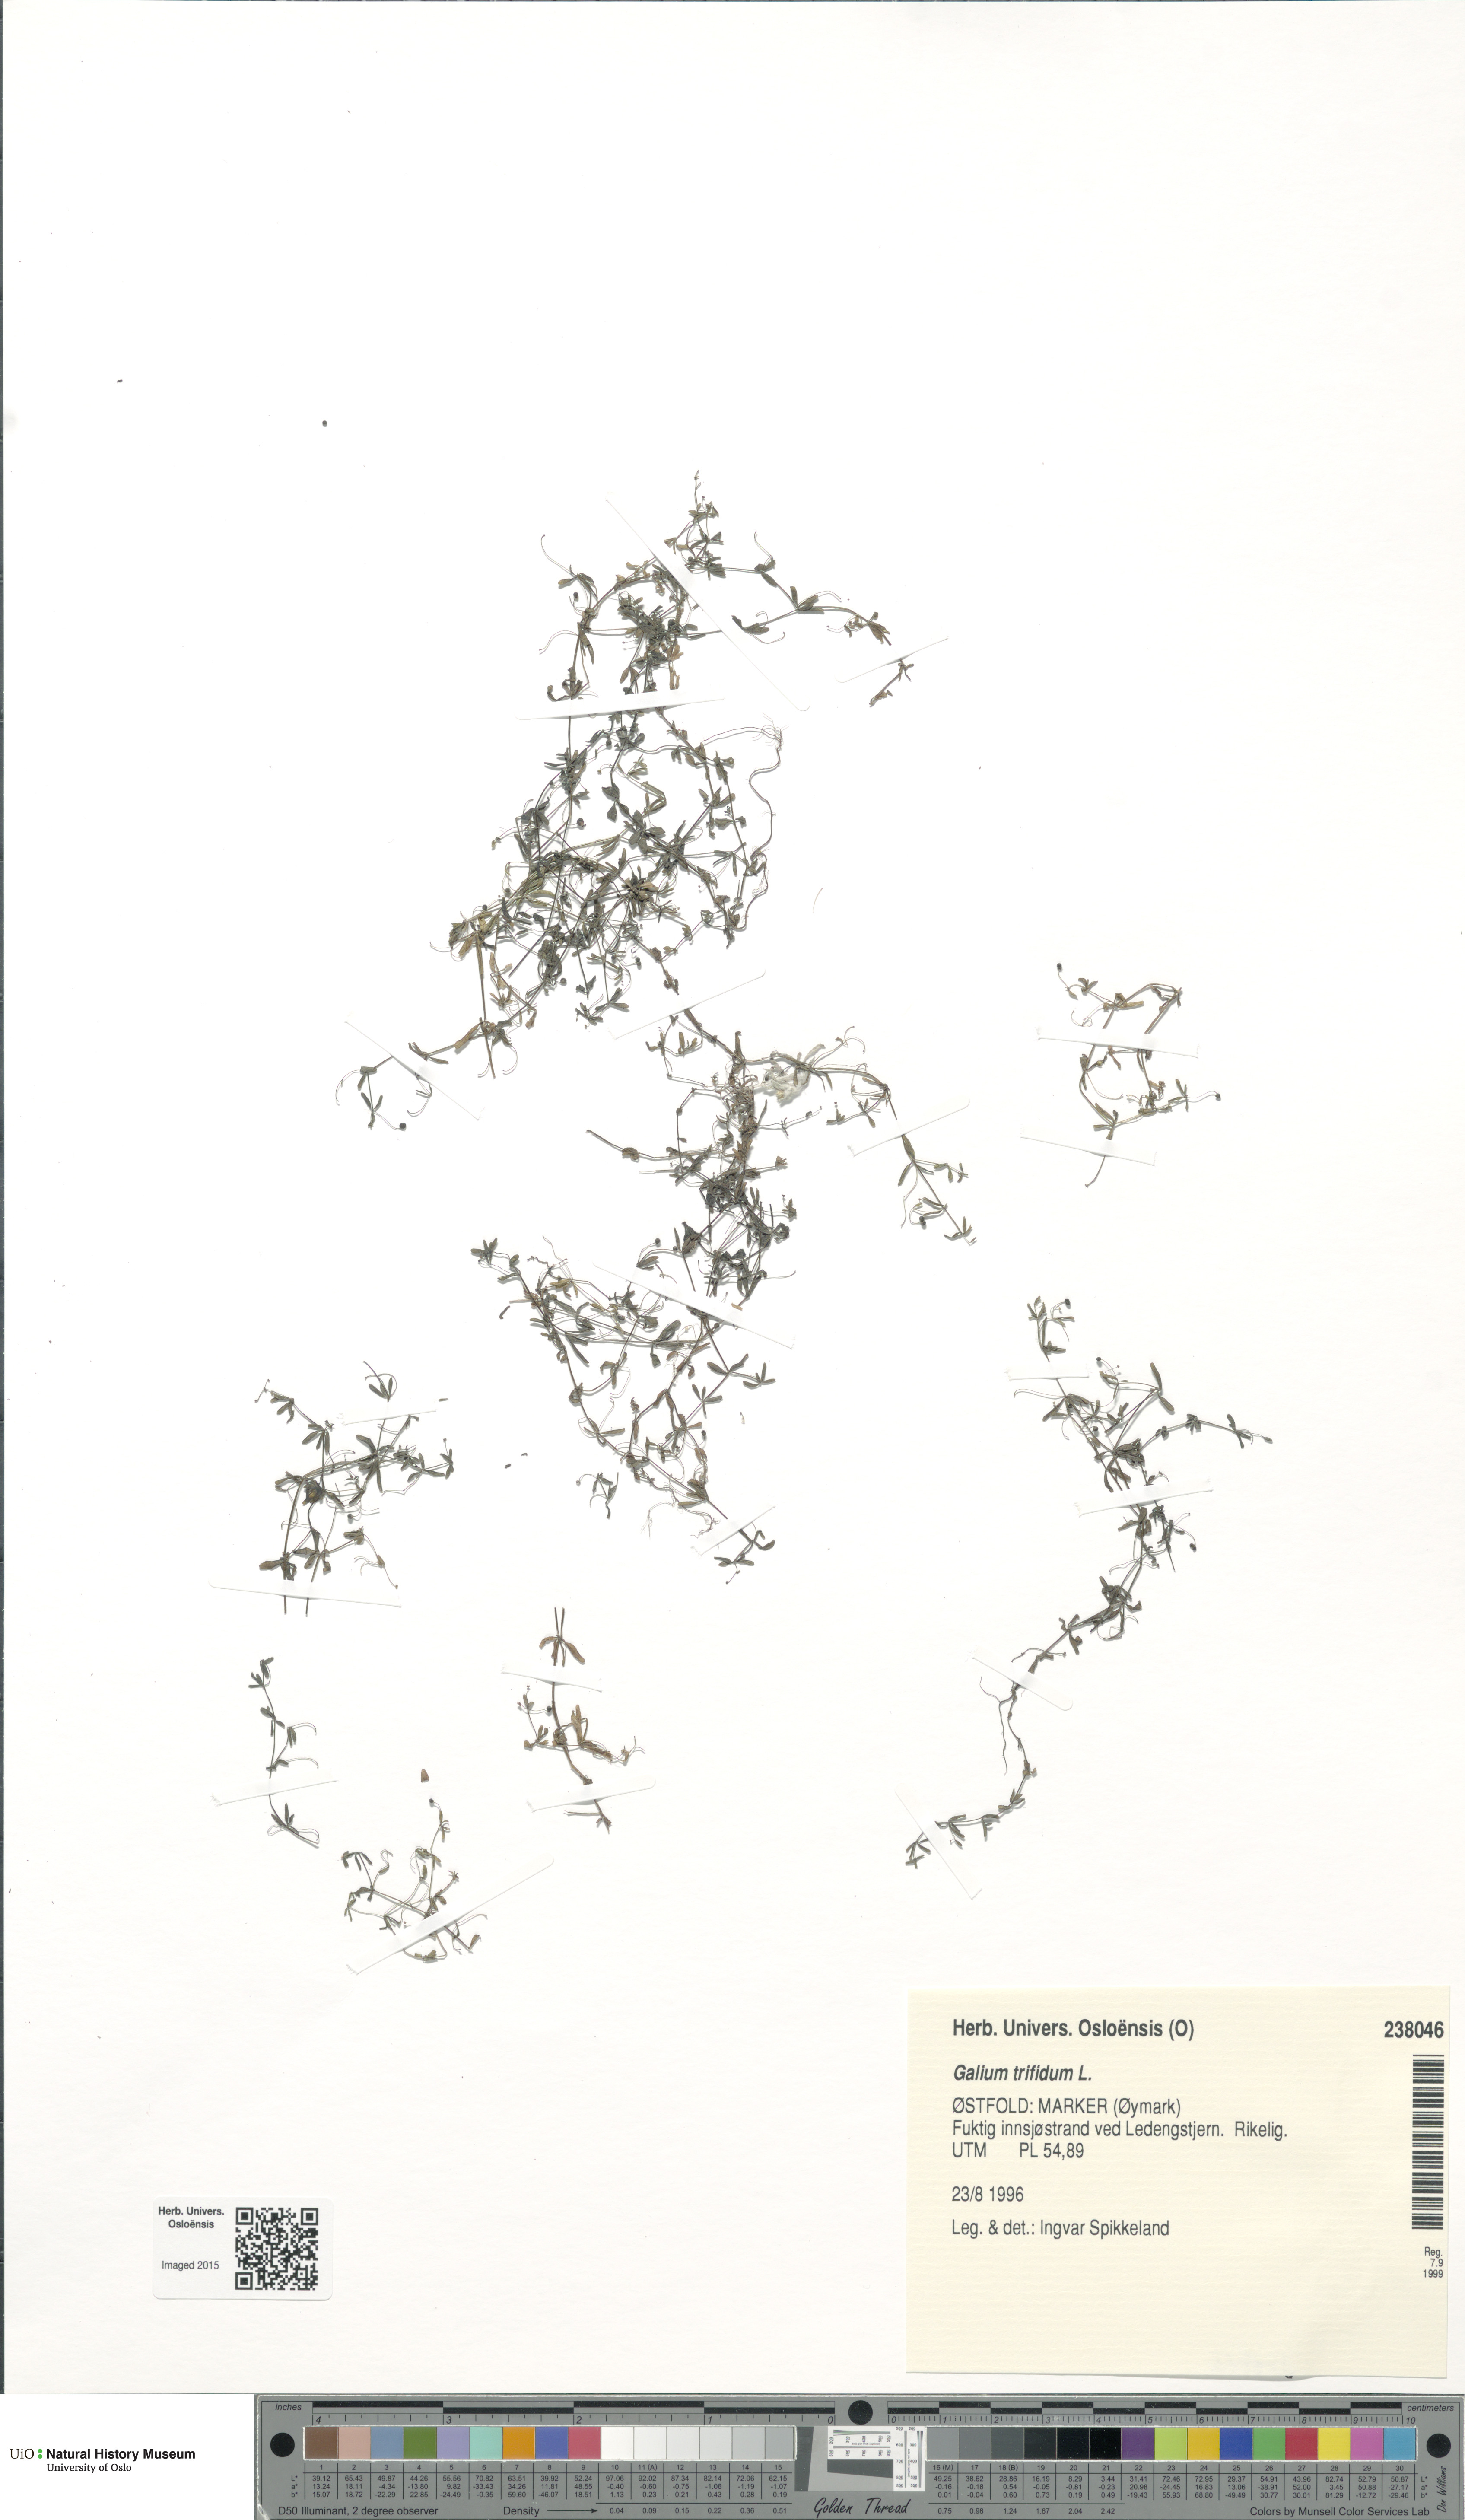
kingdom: Plantae
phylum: Tracheophyta
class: Magnoliopsida
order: Gentianales
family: Rubiaceae
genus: Galium
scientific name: Galium trifidum
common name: Small bedstraw
